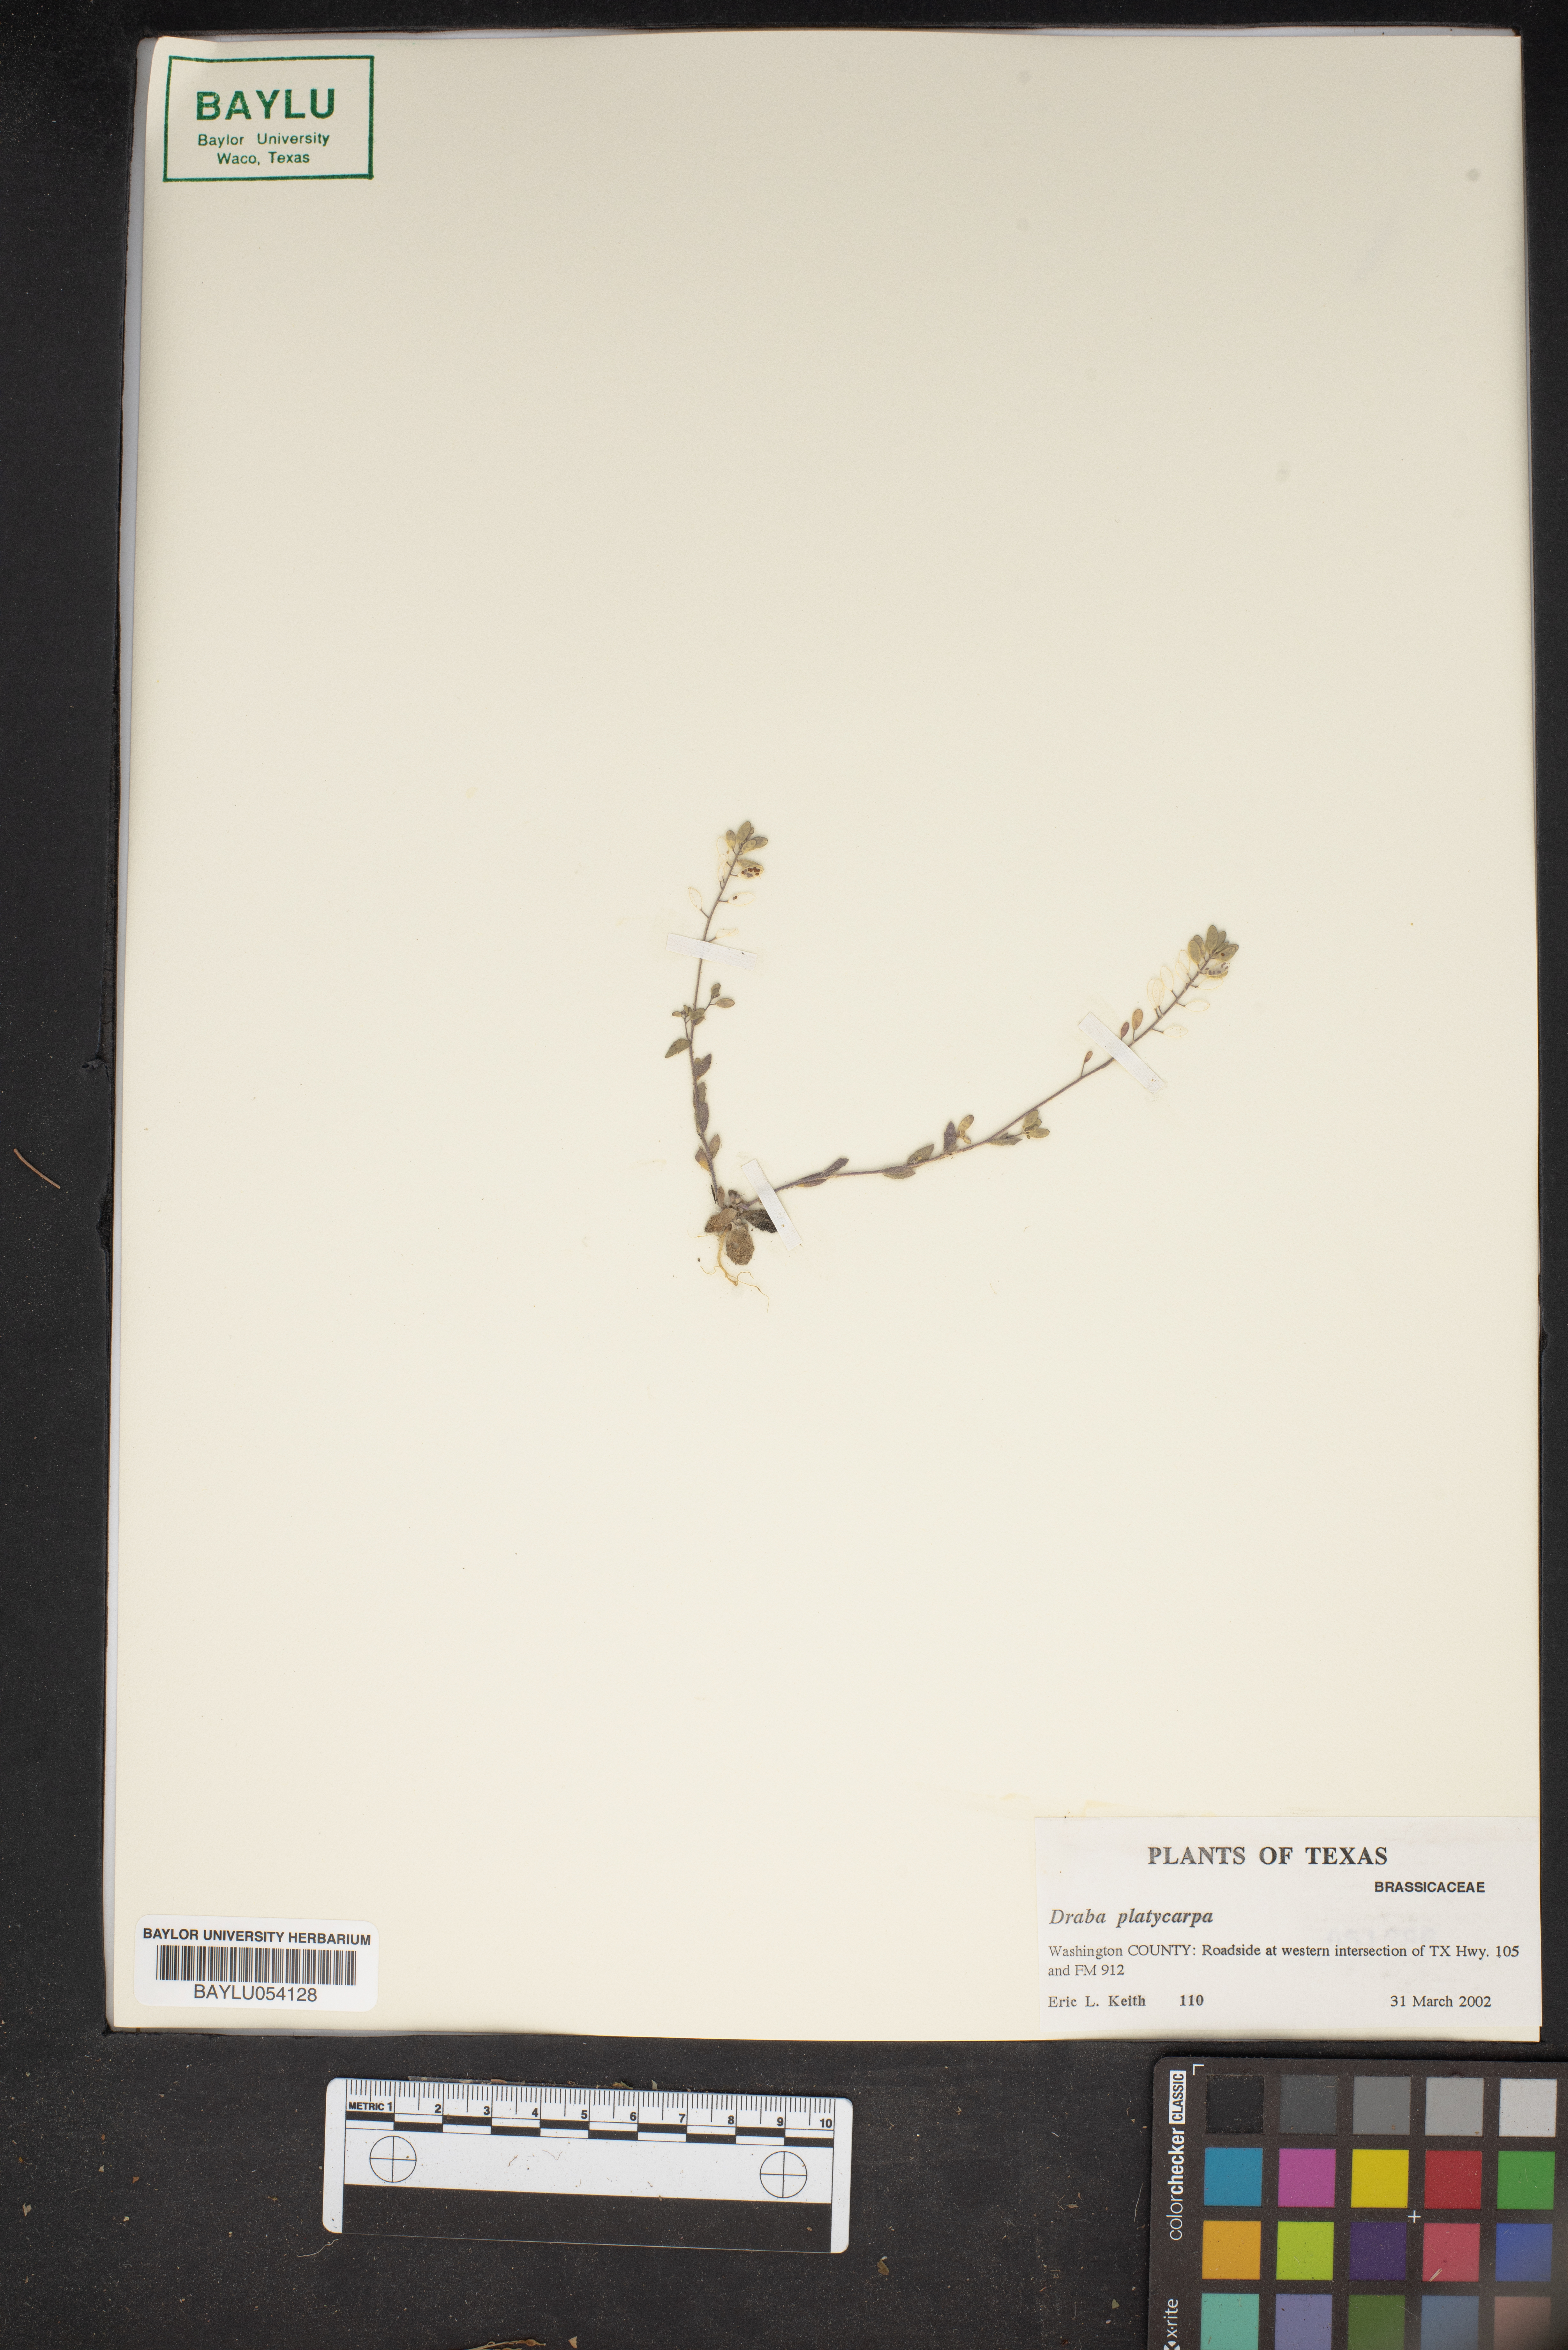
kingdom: Plantae
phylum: Tracheophyta
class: Magnoliopsida
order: Brassicales
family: Brassicaceae
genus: Tomostima
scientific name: Tomostima platycarpa
